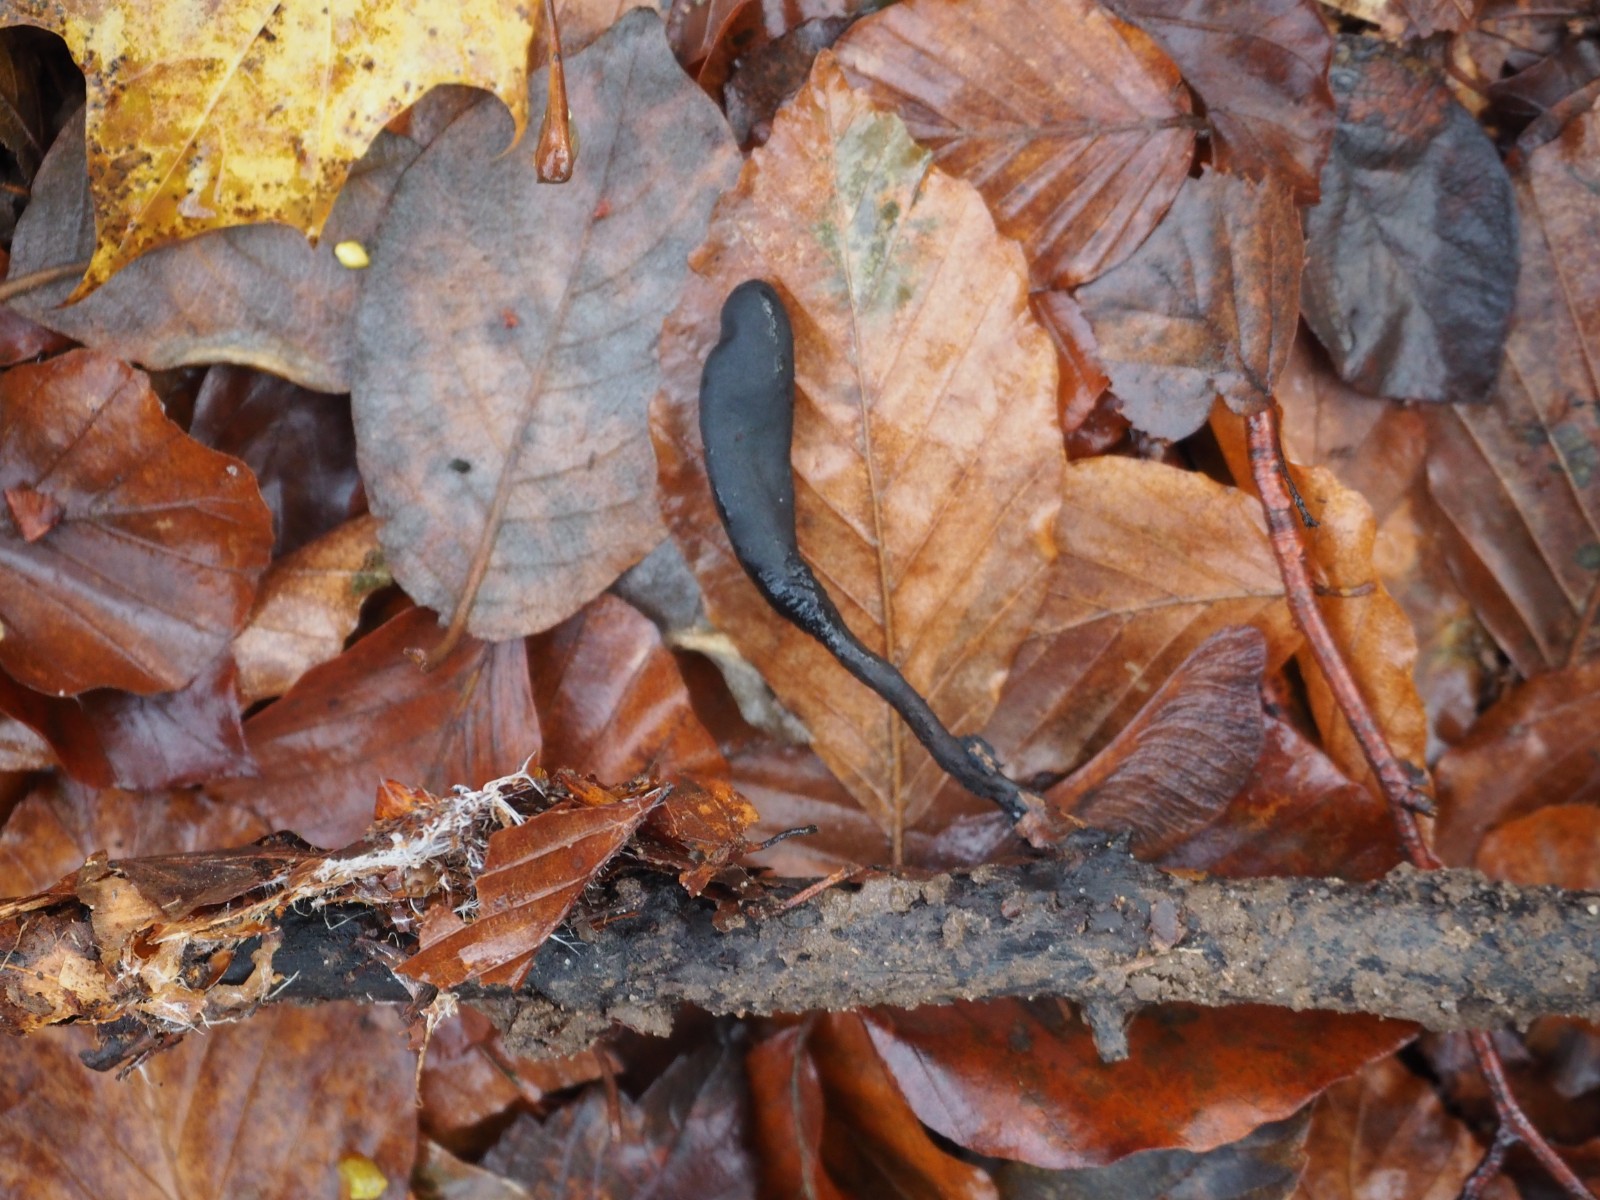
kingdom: Fungi
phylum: Ascomycota
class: Sordariomycetes
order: Xylariales
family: Xylariaceae
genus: Xylaria
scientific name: Xylaria longipes
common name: slank stødsvamp
